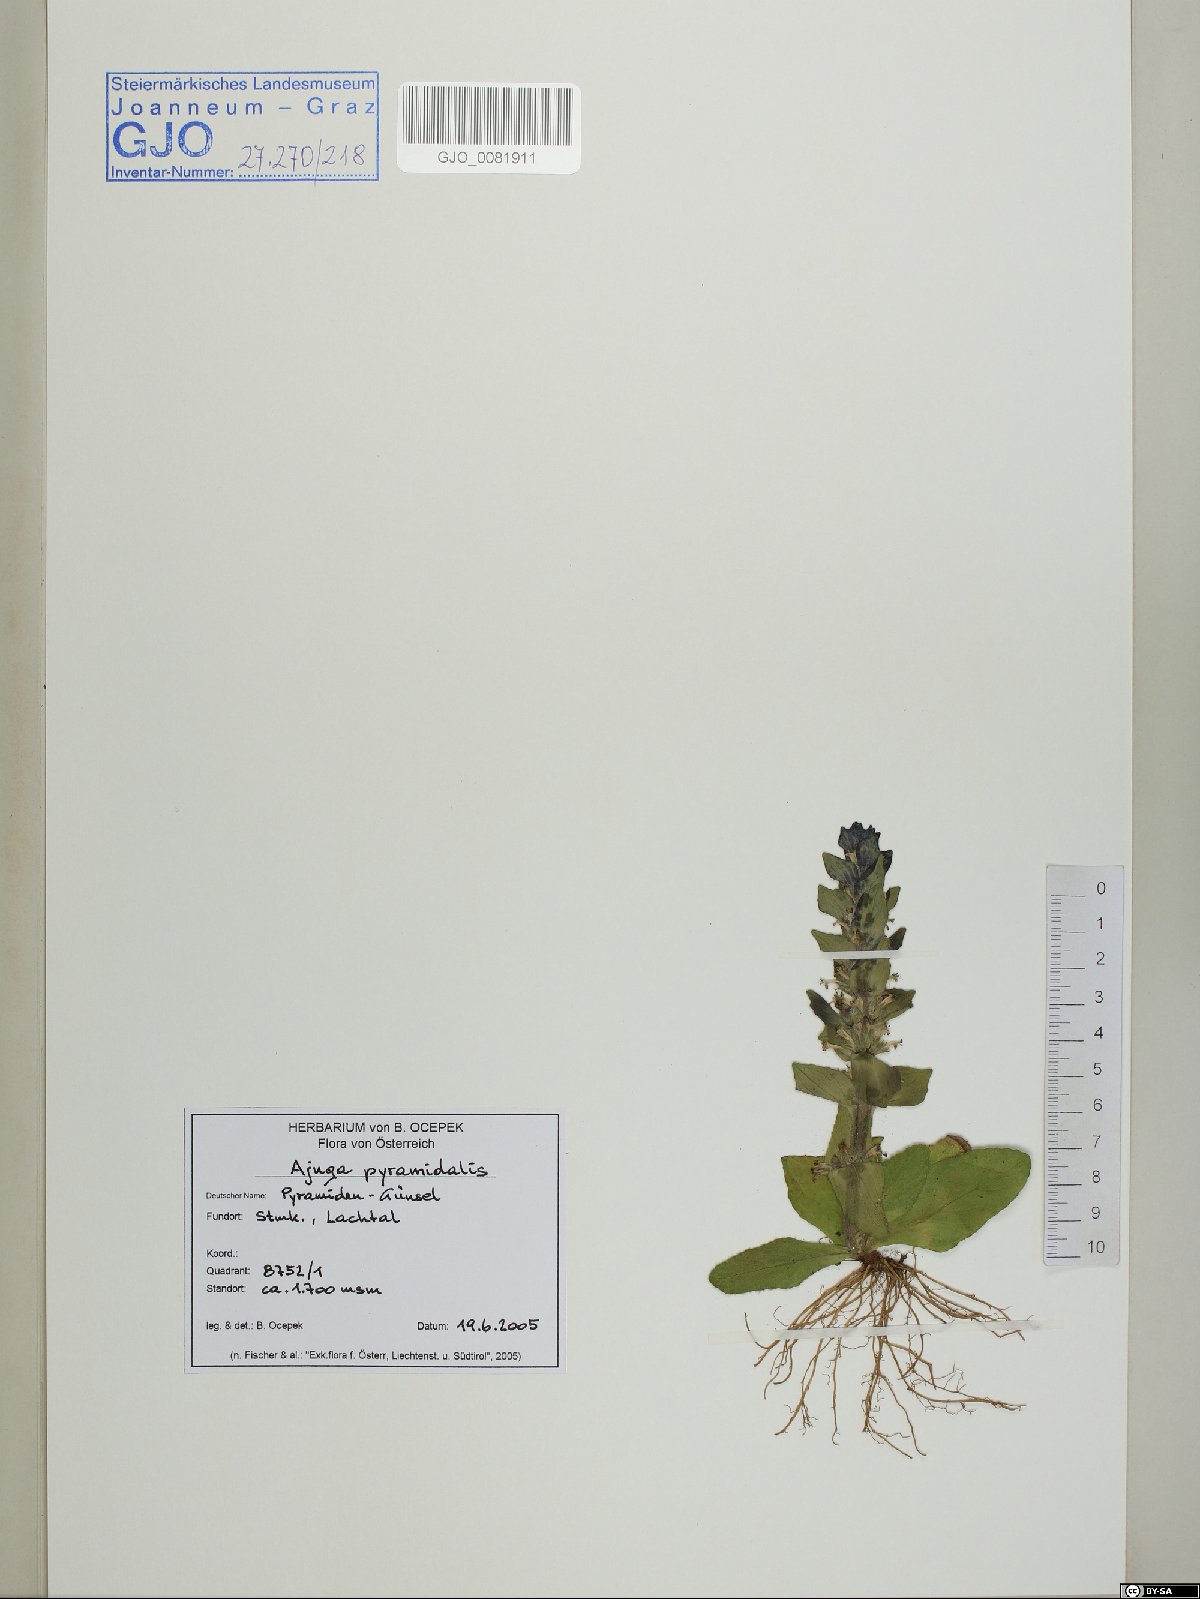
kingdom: Plantae
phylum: Tracheophyta
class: Magnoliopsida
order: Lamiales
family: Lamiaceae
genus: Ajuga
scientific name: Ajuga pyramidalis
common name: Pyramid bugle
